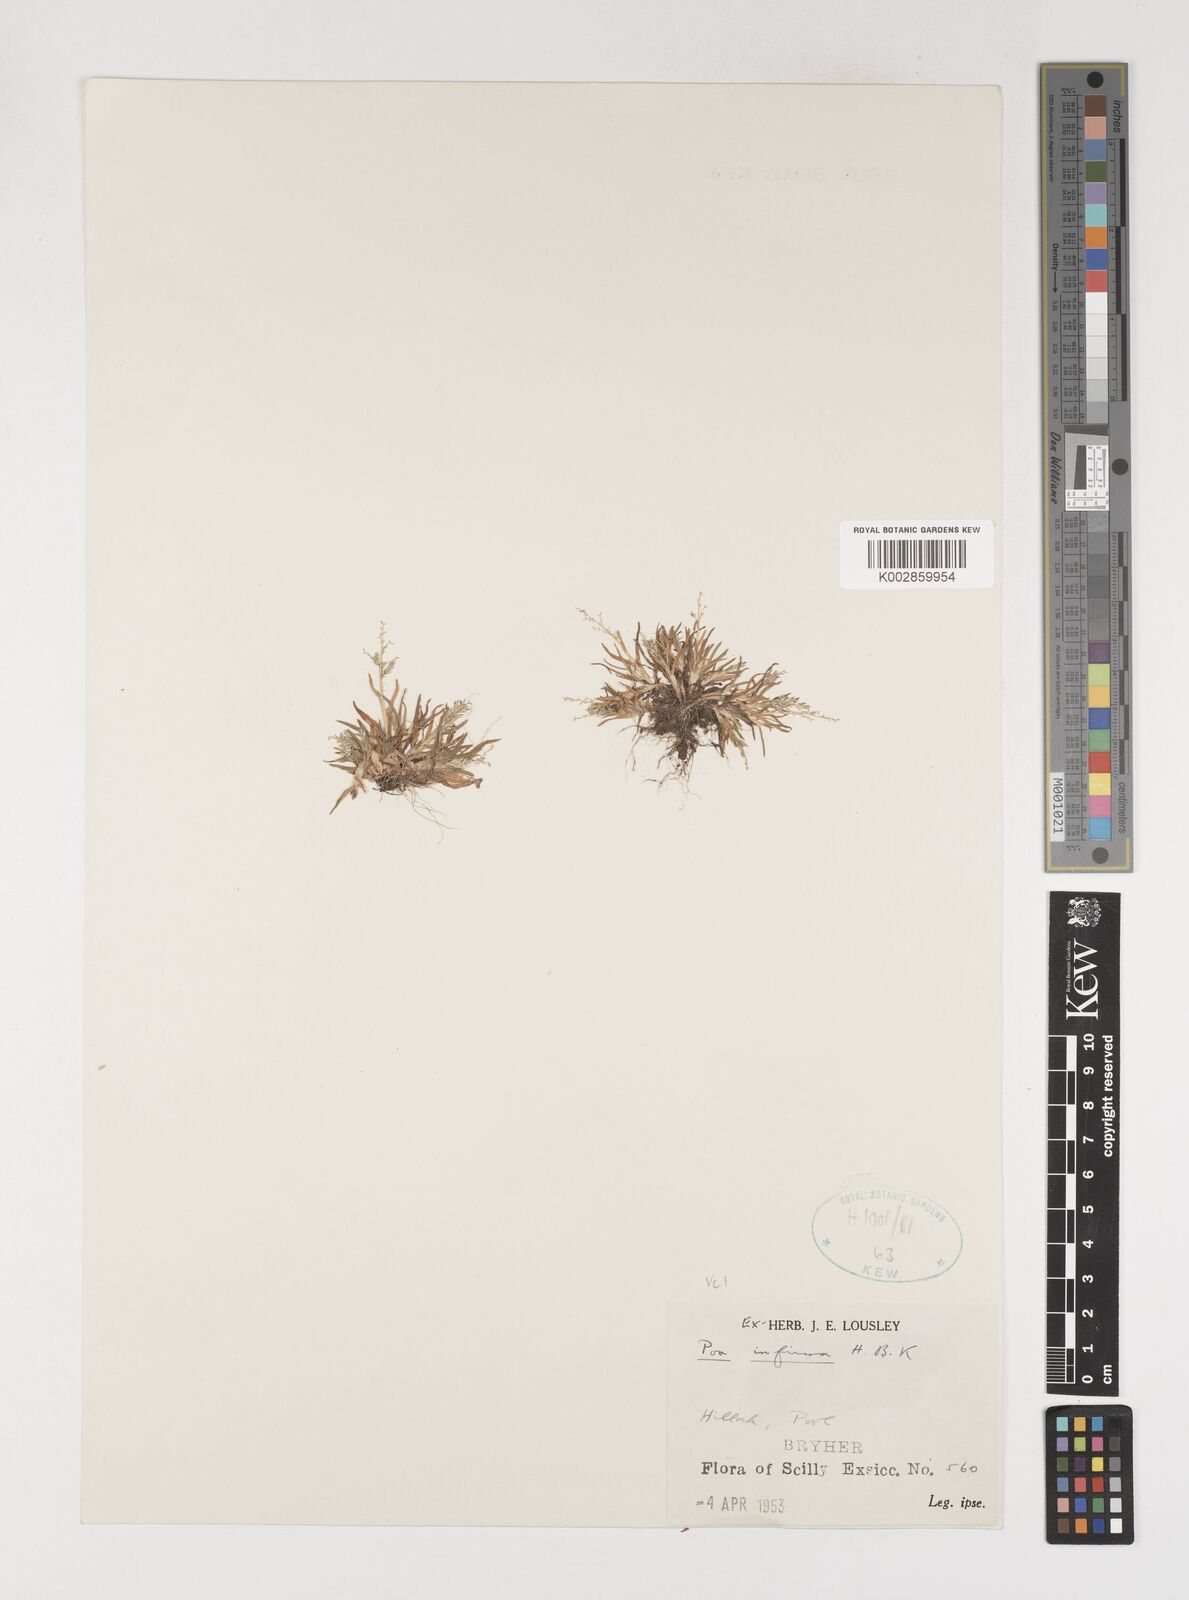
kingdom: Plantae
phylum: Tracheophyta
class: Liliopsida
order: Poales
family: Poaceae
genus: Poa
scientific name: Poa infirma
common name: Weak bluegrass
